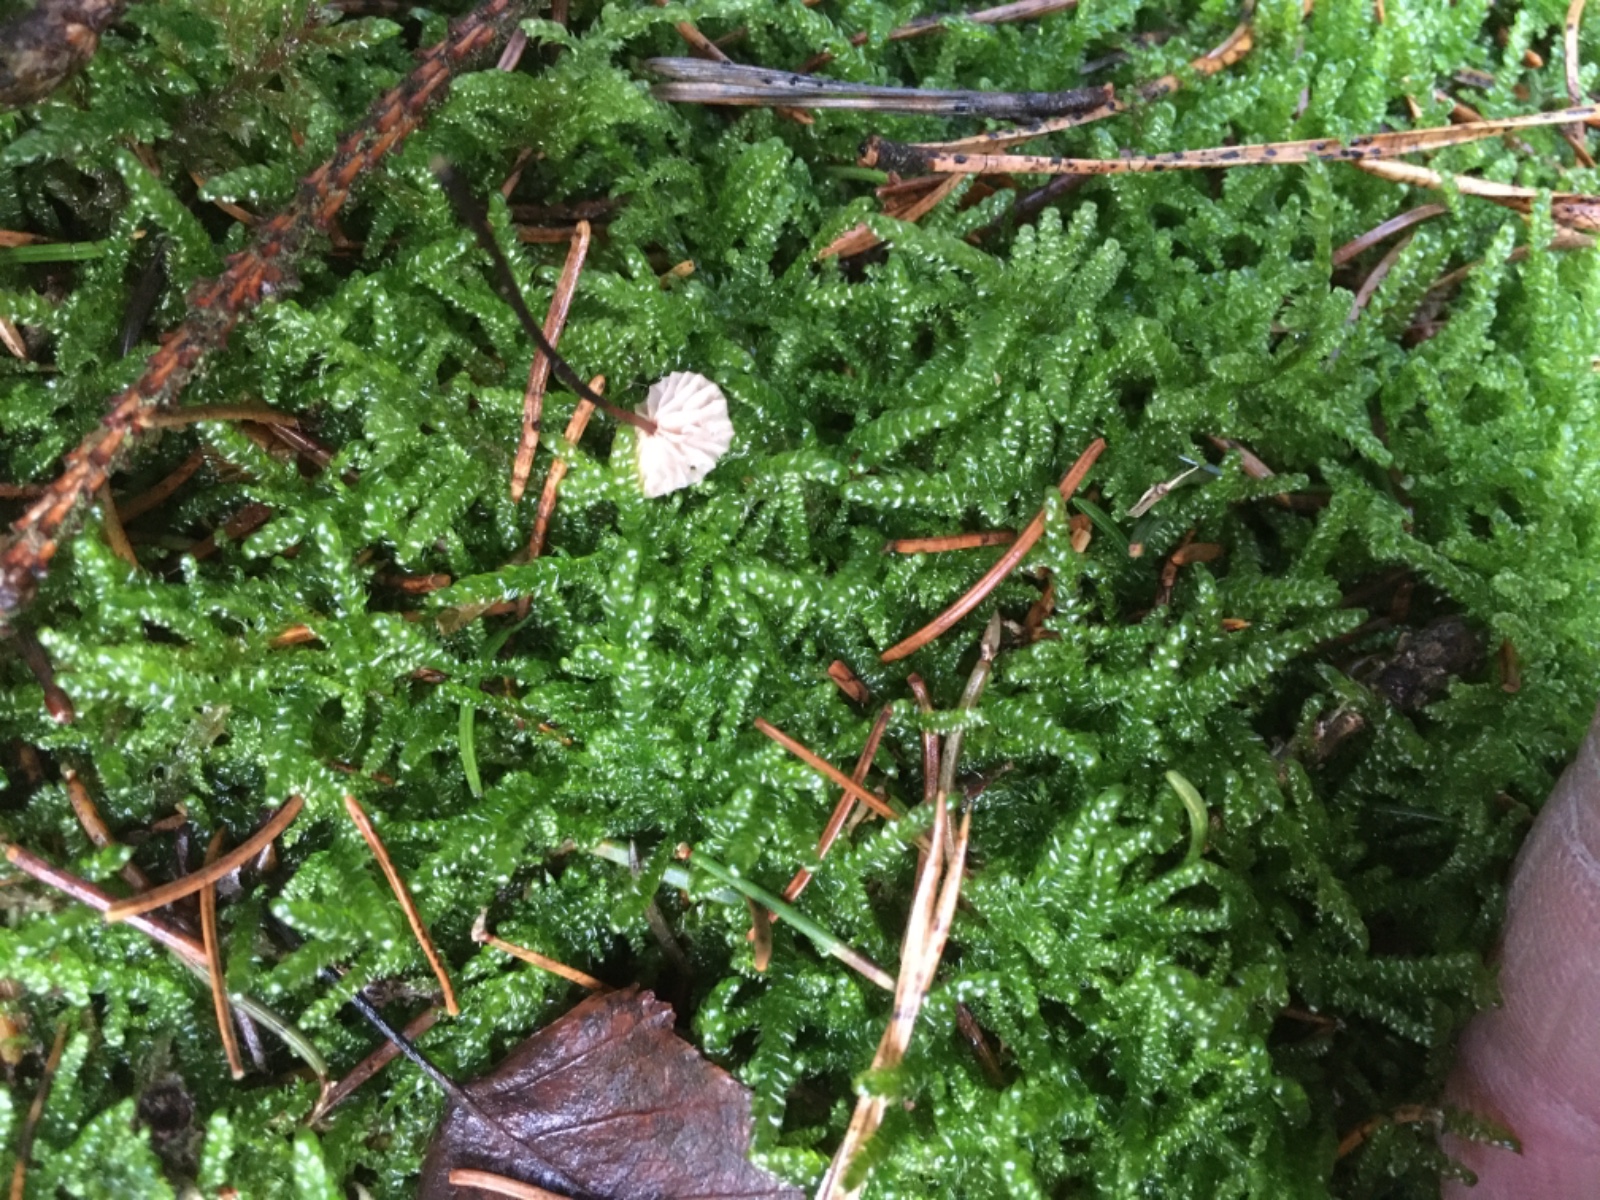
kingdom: Fungi
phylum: Basidiomycota
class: Agaricomycetes
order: Agaricales
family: Omphalotaceae
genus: Paragymnopus
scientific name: Paragymnopus perforans
